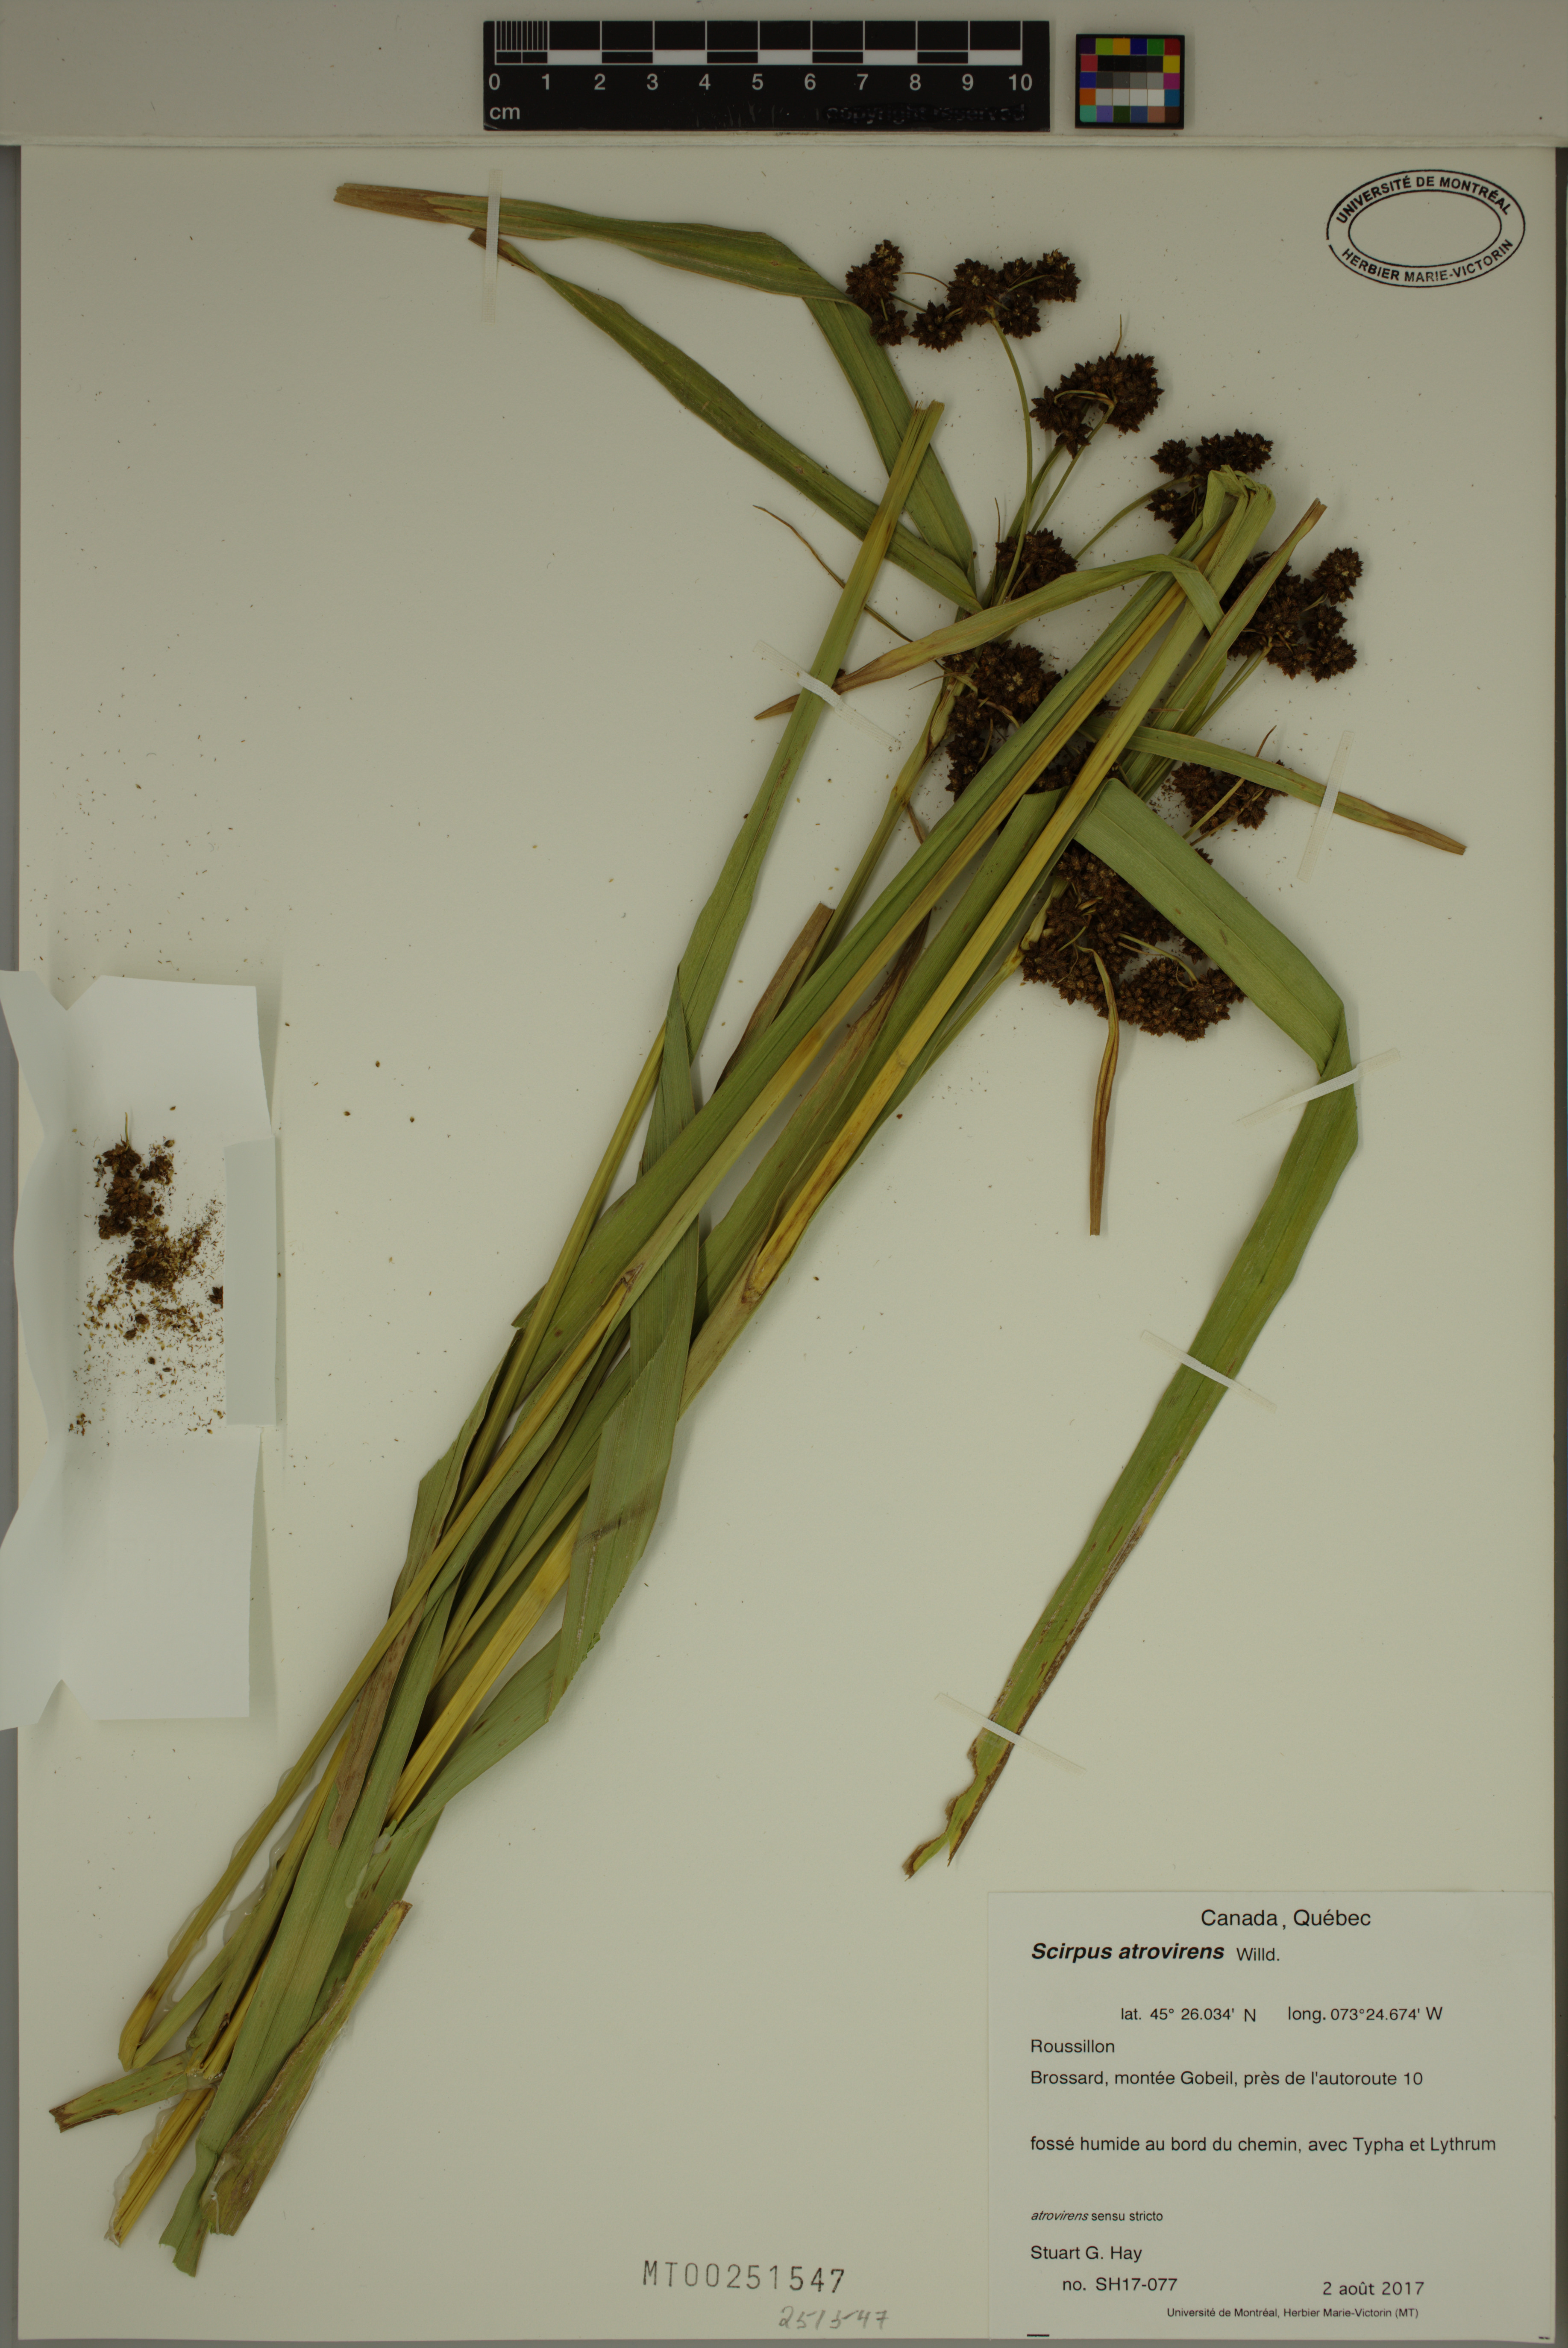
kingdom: Plantae
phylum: Tracheophyta
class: Liliopsida
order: Poales
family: Cyperaceae
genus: Scirpus
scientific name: Scirpus atrovirens
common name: Black bulrush
